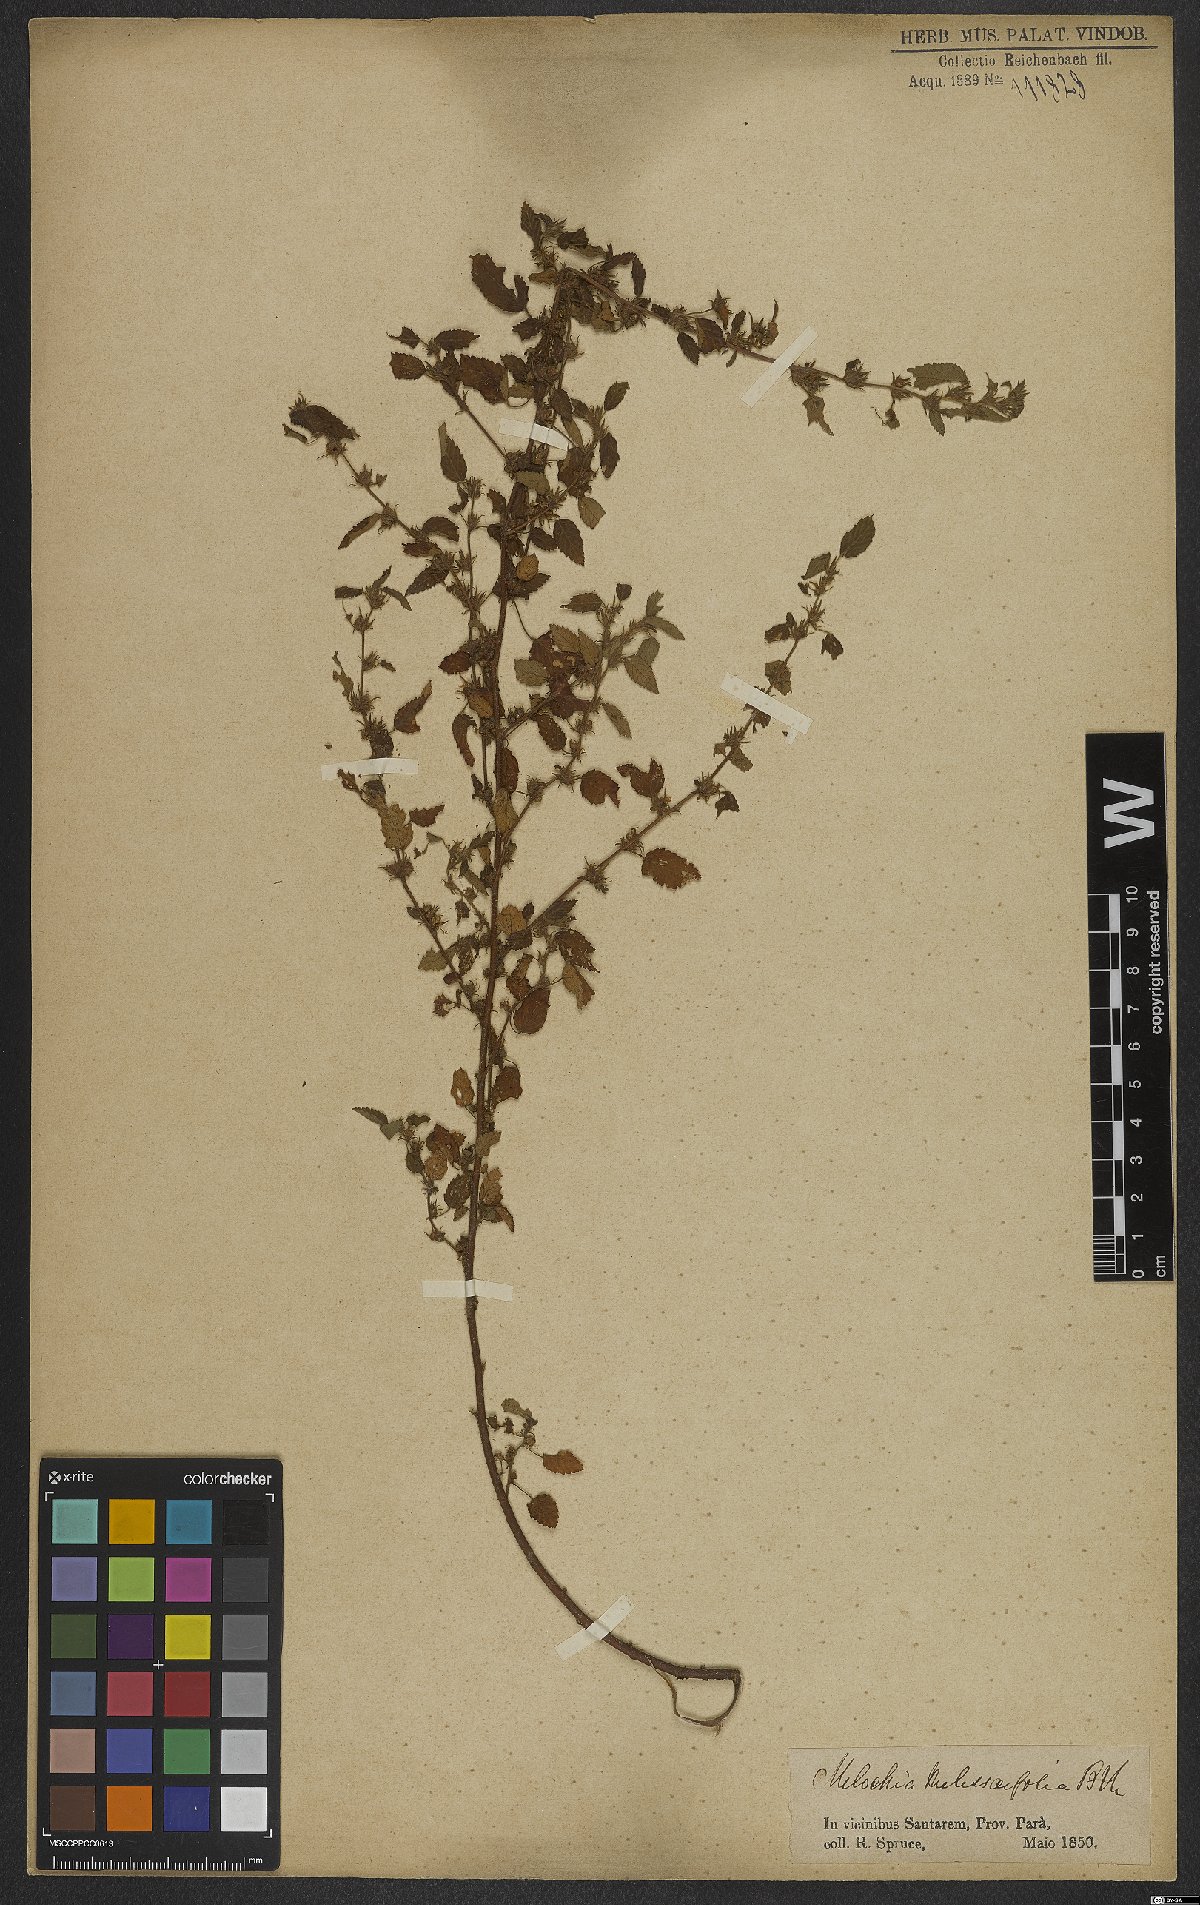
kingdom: Plantae
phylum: Tracheophyta
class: Magnoliopsida
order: Malvales
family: Malvaceae
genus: Melochia
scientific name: Melochia melissifolia
